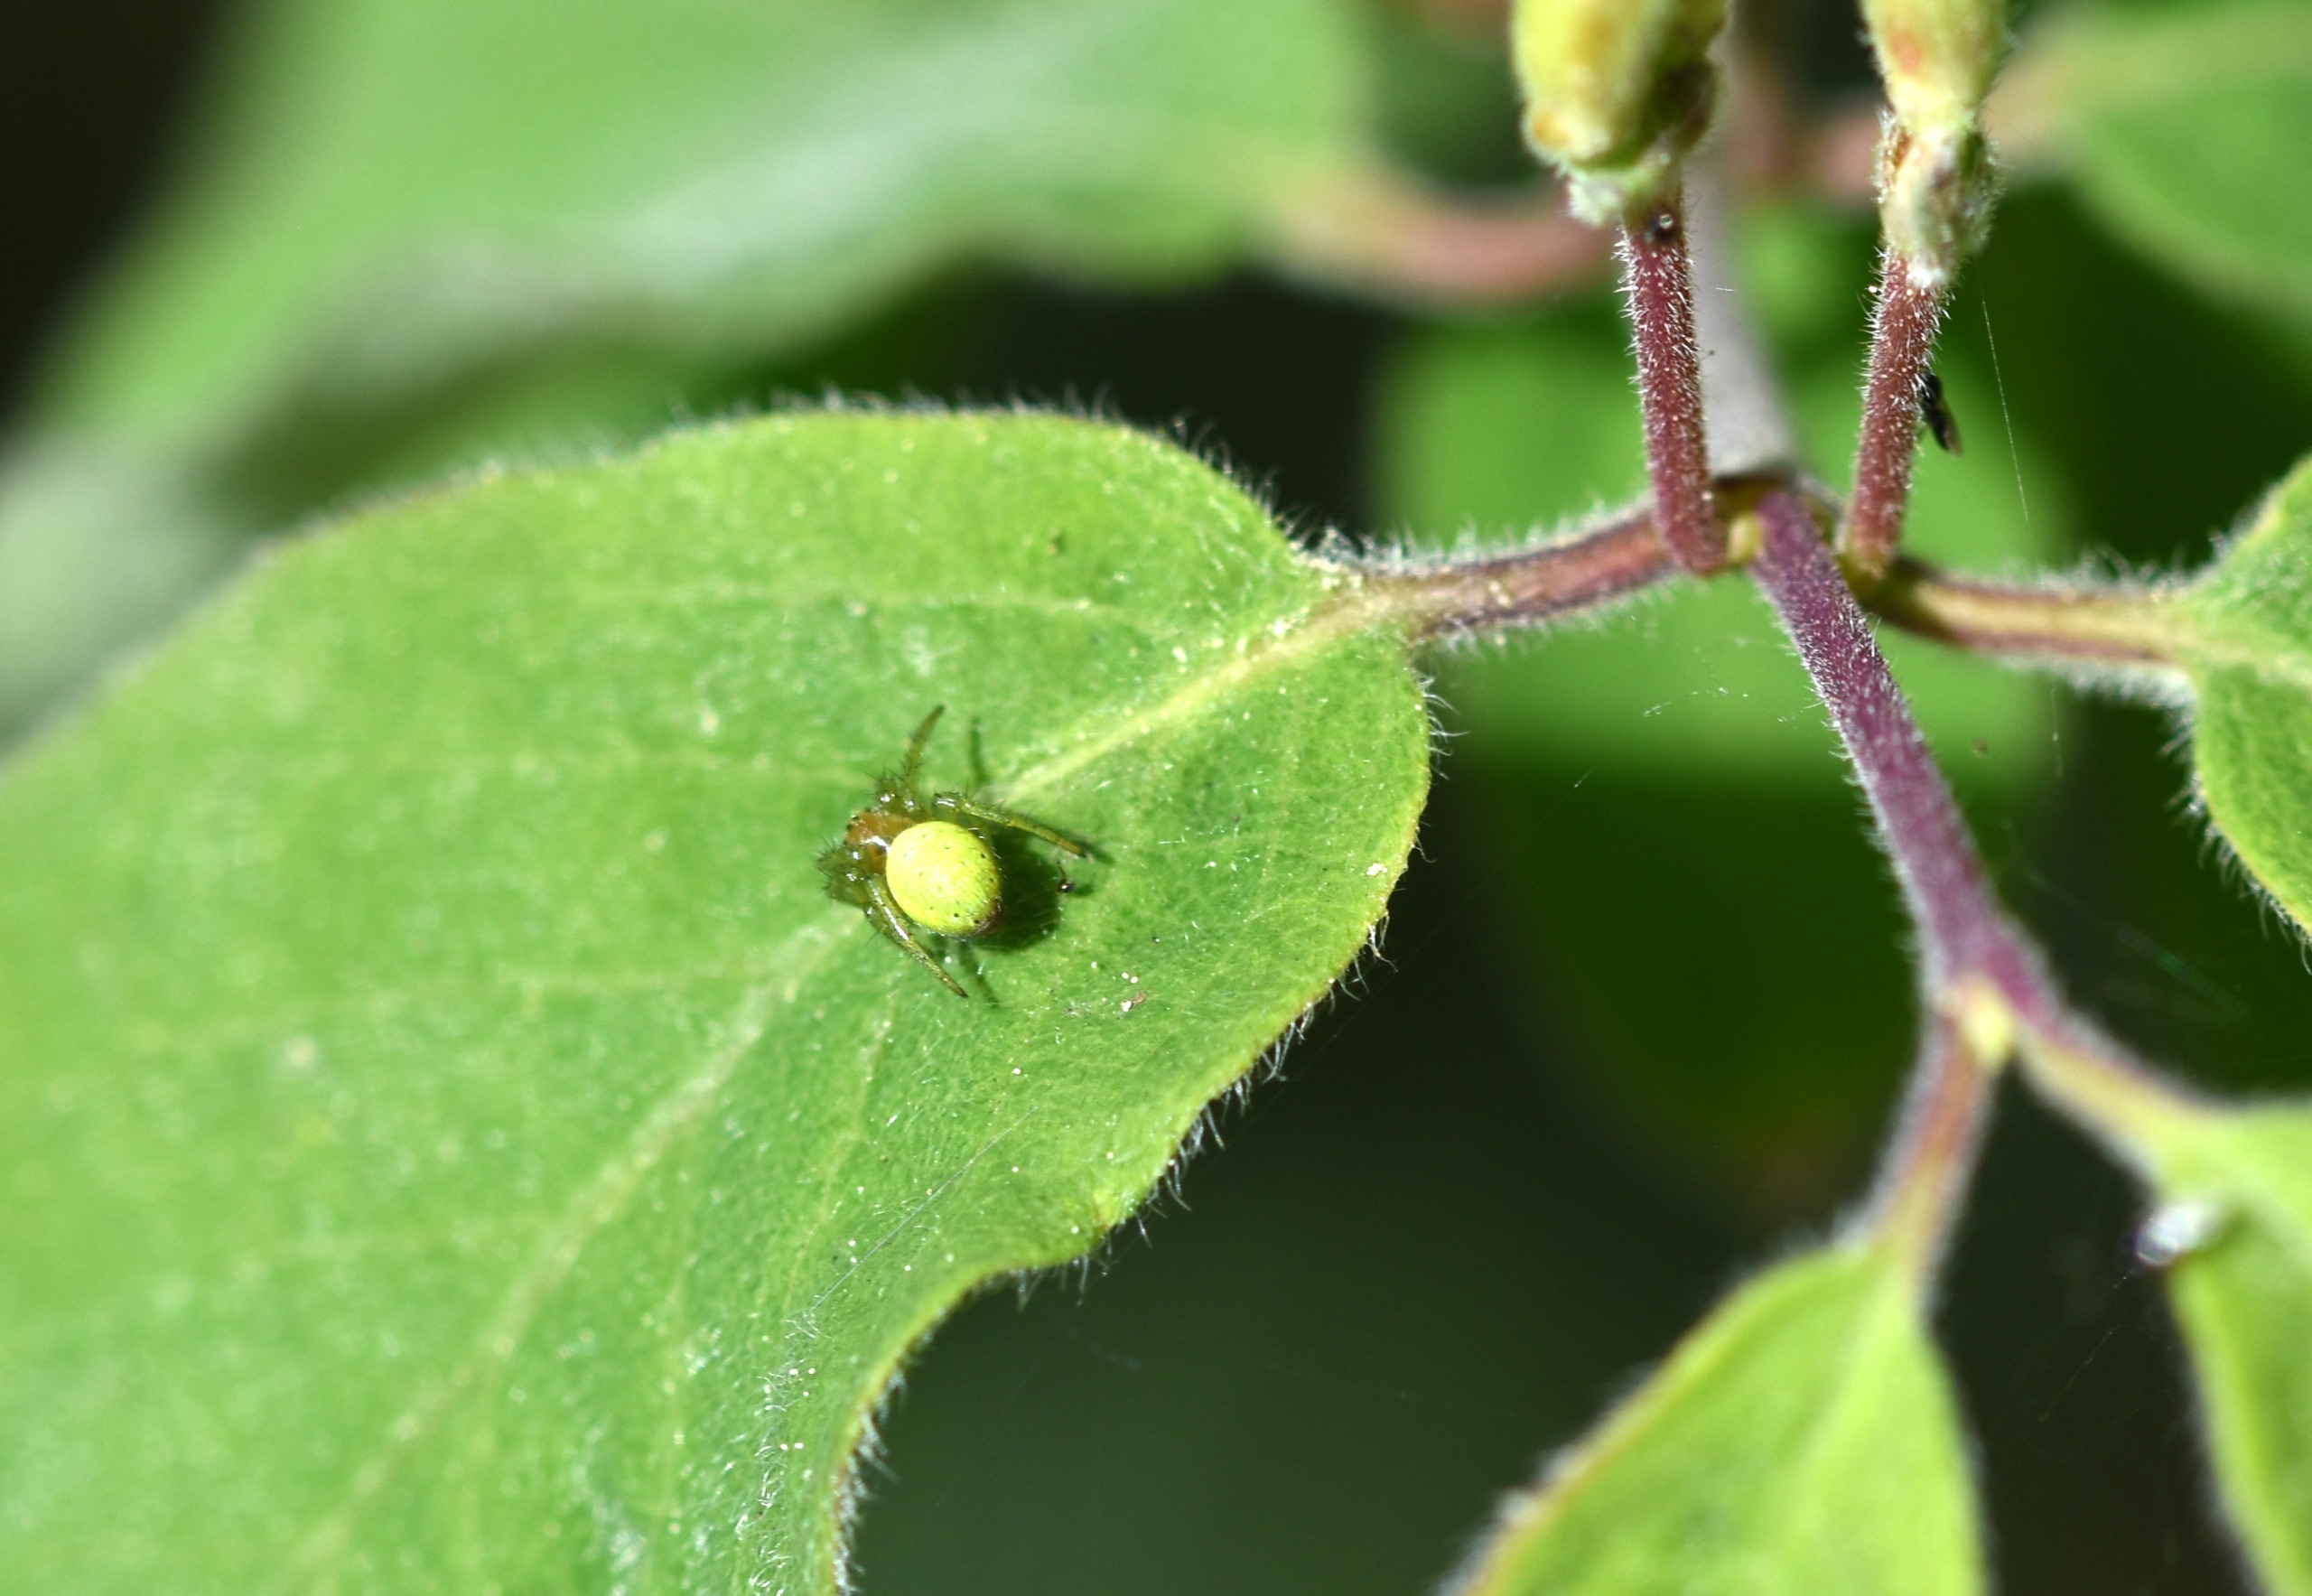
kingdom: Animalia
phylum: Arthropoda
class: Arachnida
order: Araneae
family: Araneidae
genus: Araniella
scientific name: Araniella
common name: Agurkeedderkopslægten
